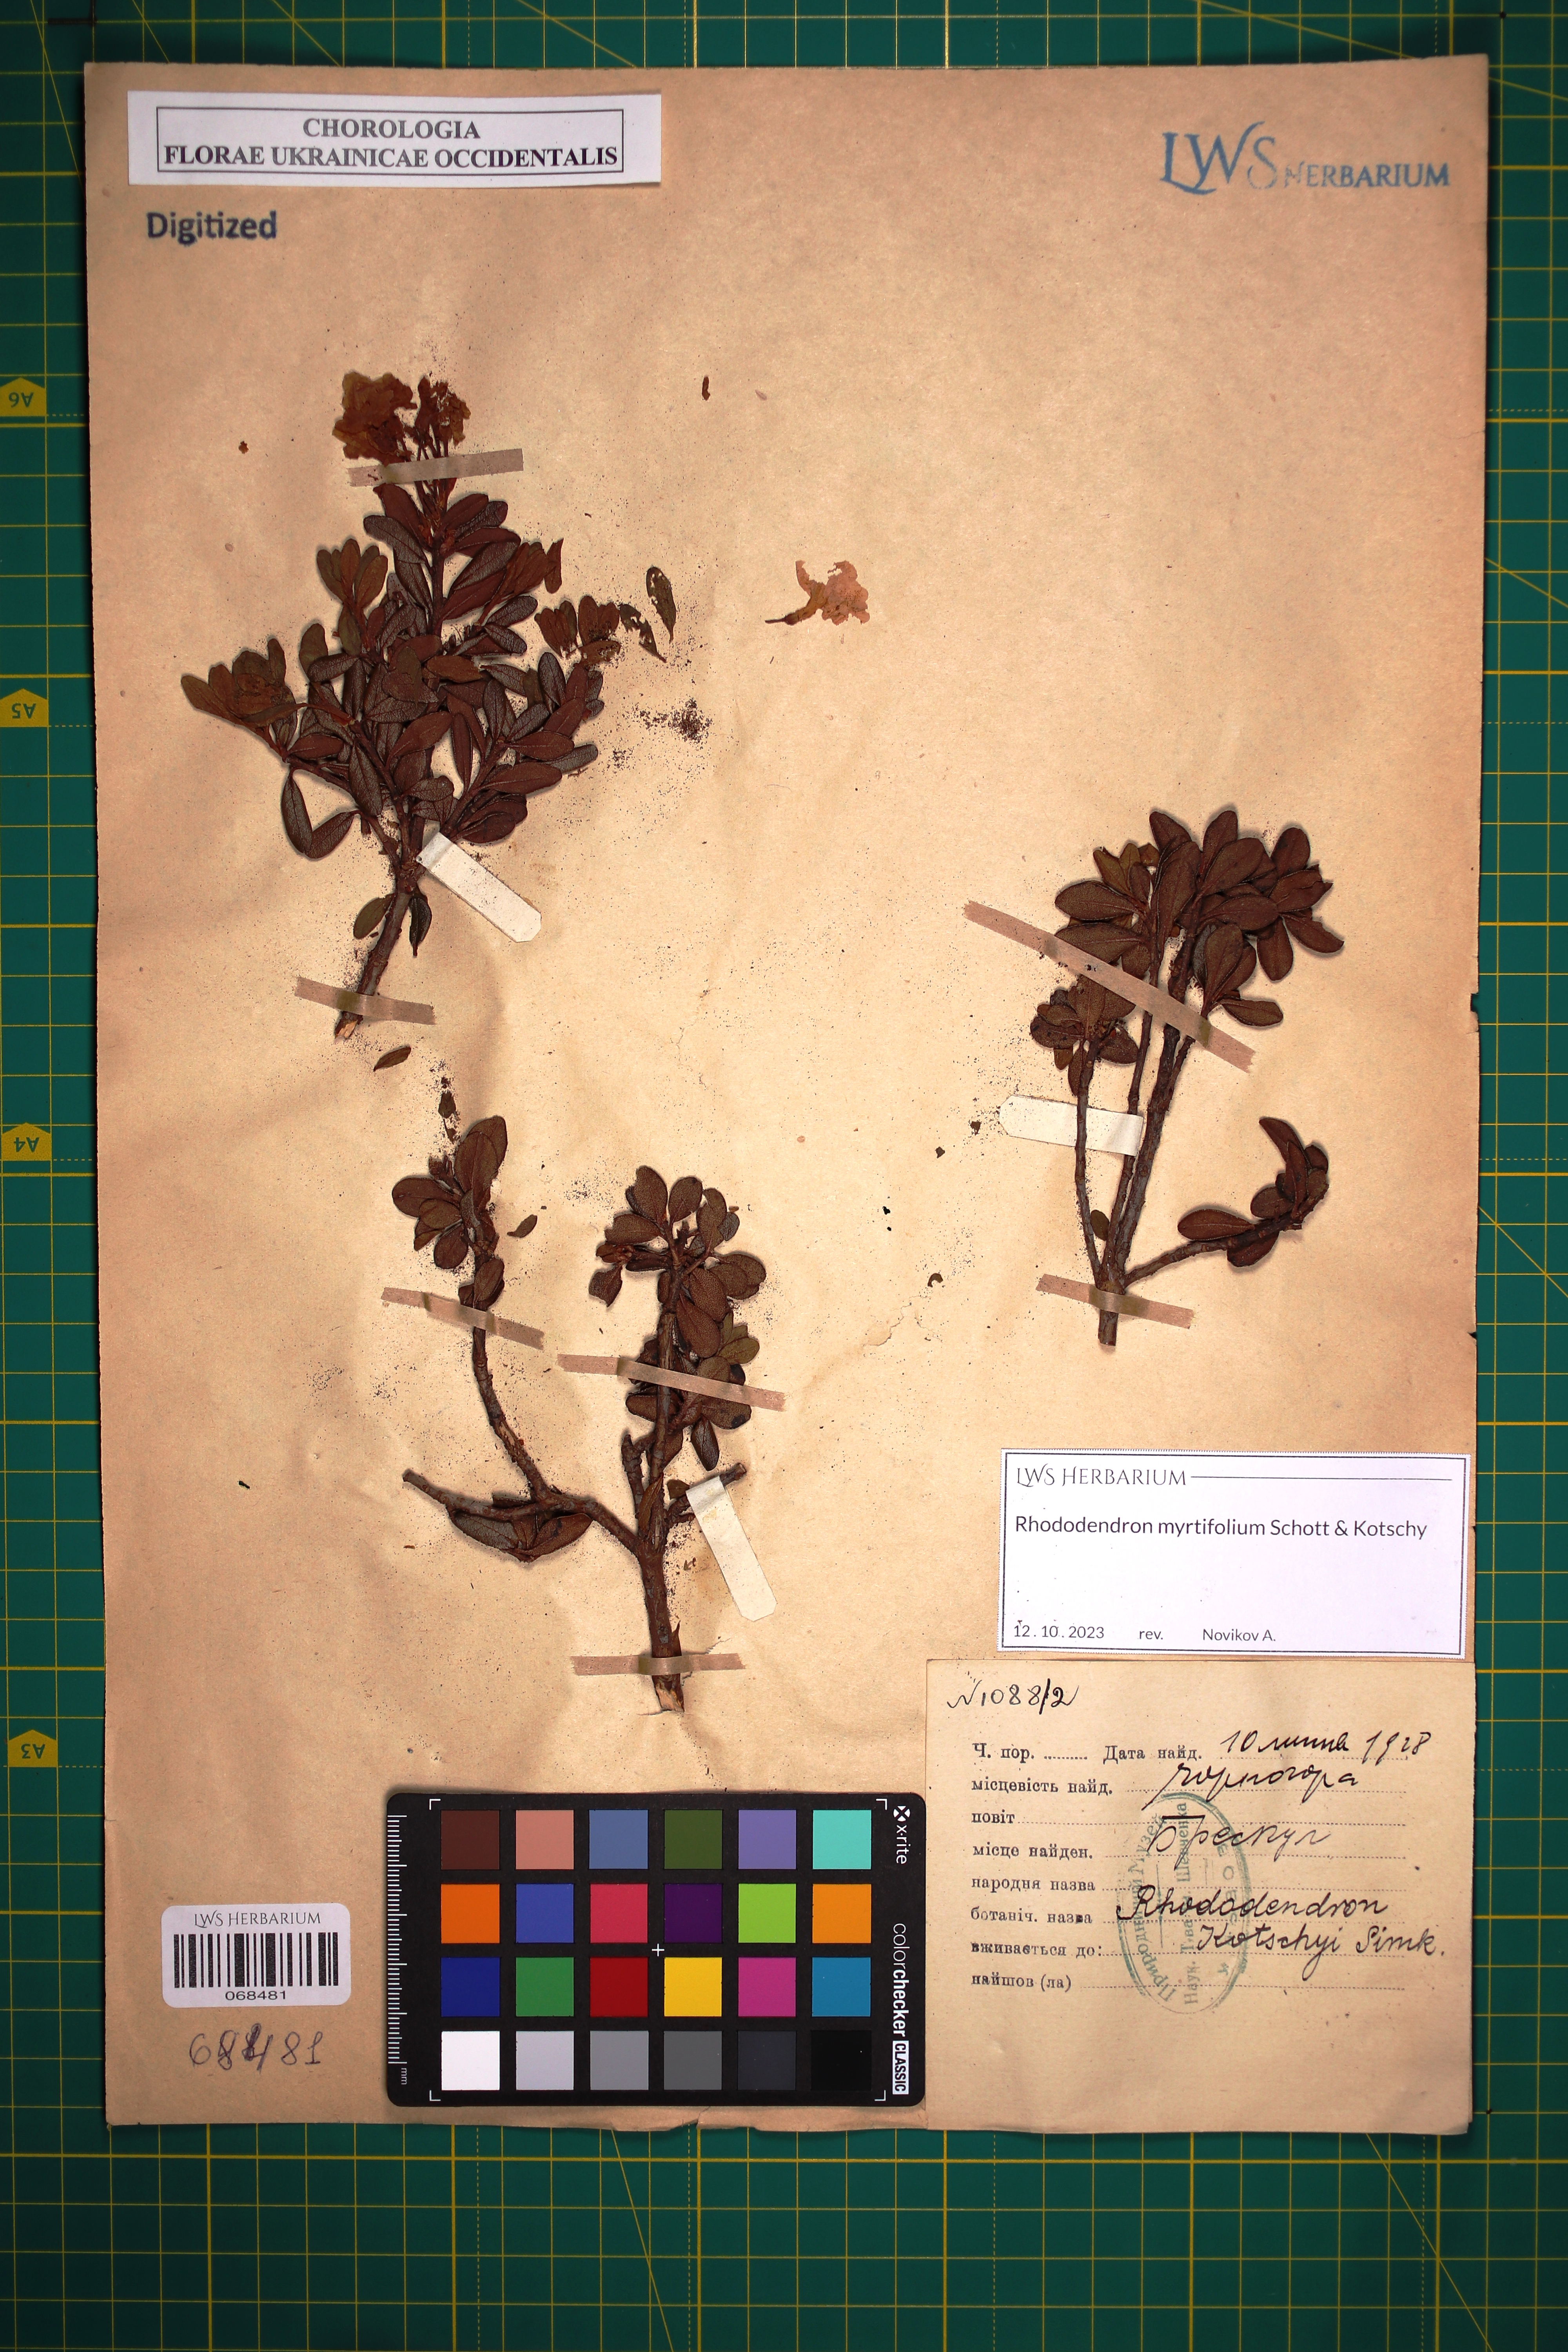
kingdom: Plantae
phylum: Tracheophyta
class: Magnoliopsida
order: Ericales
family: Ericaceae
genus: Rhododendron
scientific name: Rhododendron kotschyi
